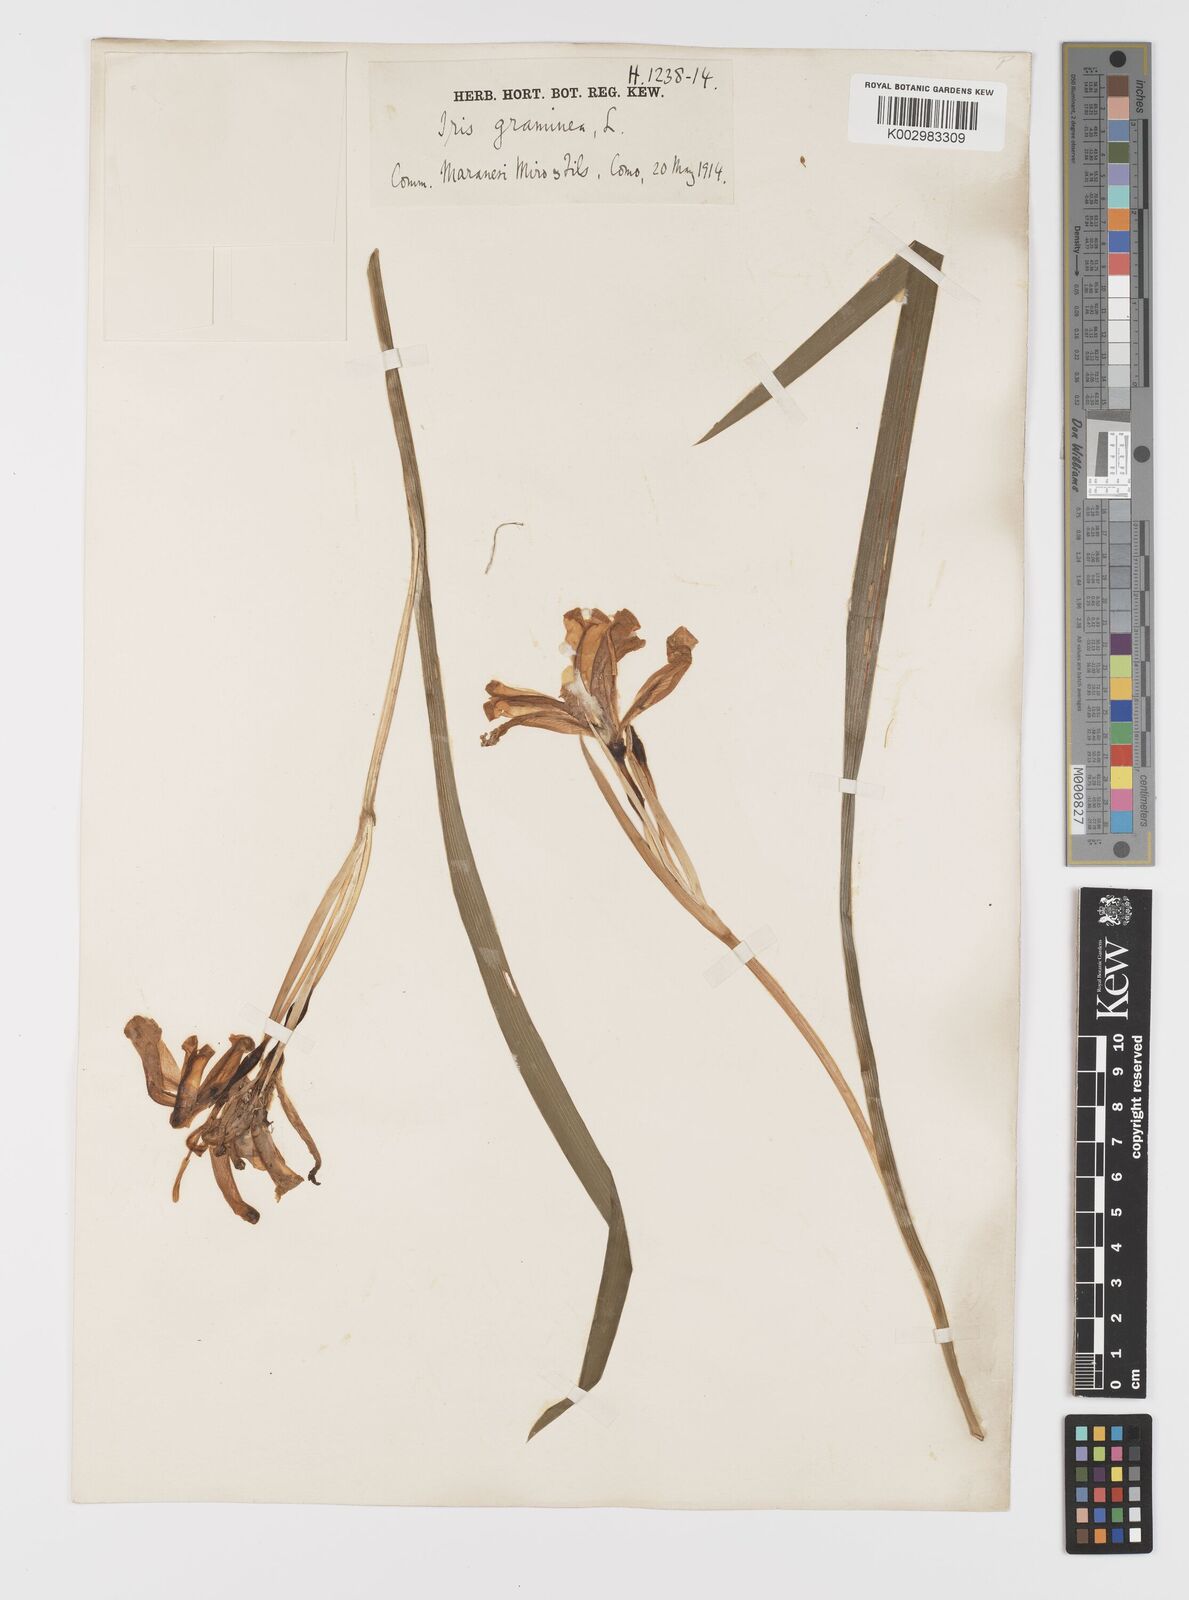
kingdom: Plantae
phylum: Tracheophyta
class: Liliopsida
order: Asparagales
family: Iridaceae
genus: Iris
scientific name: Iris graminea
